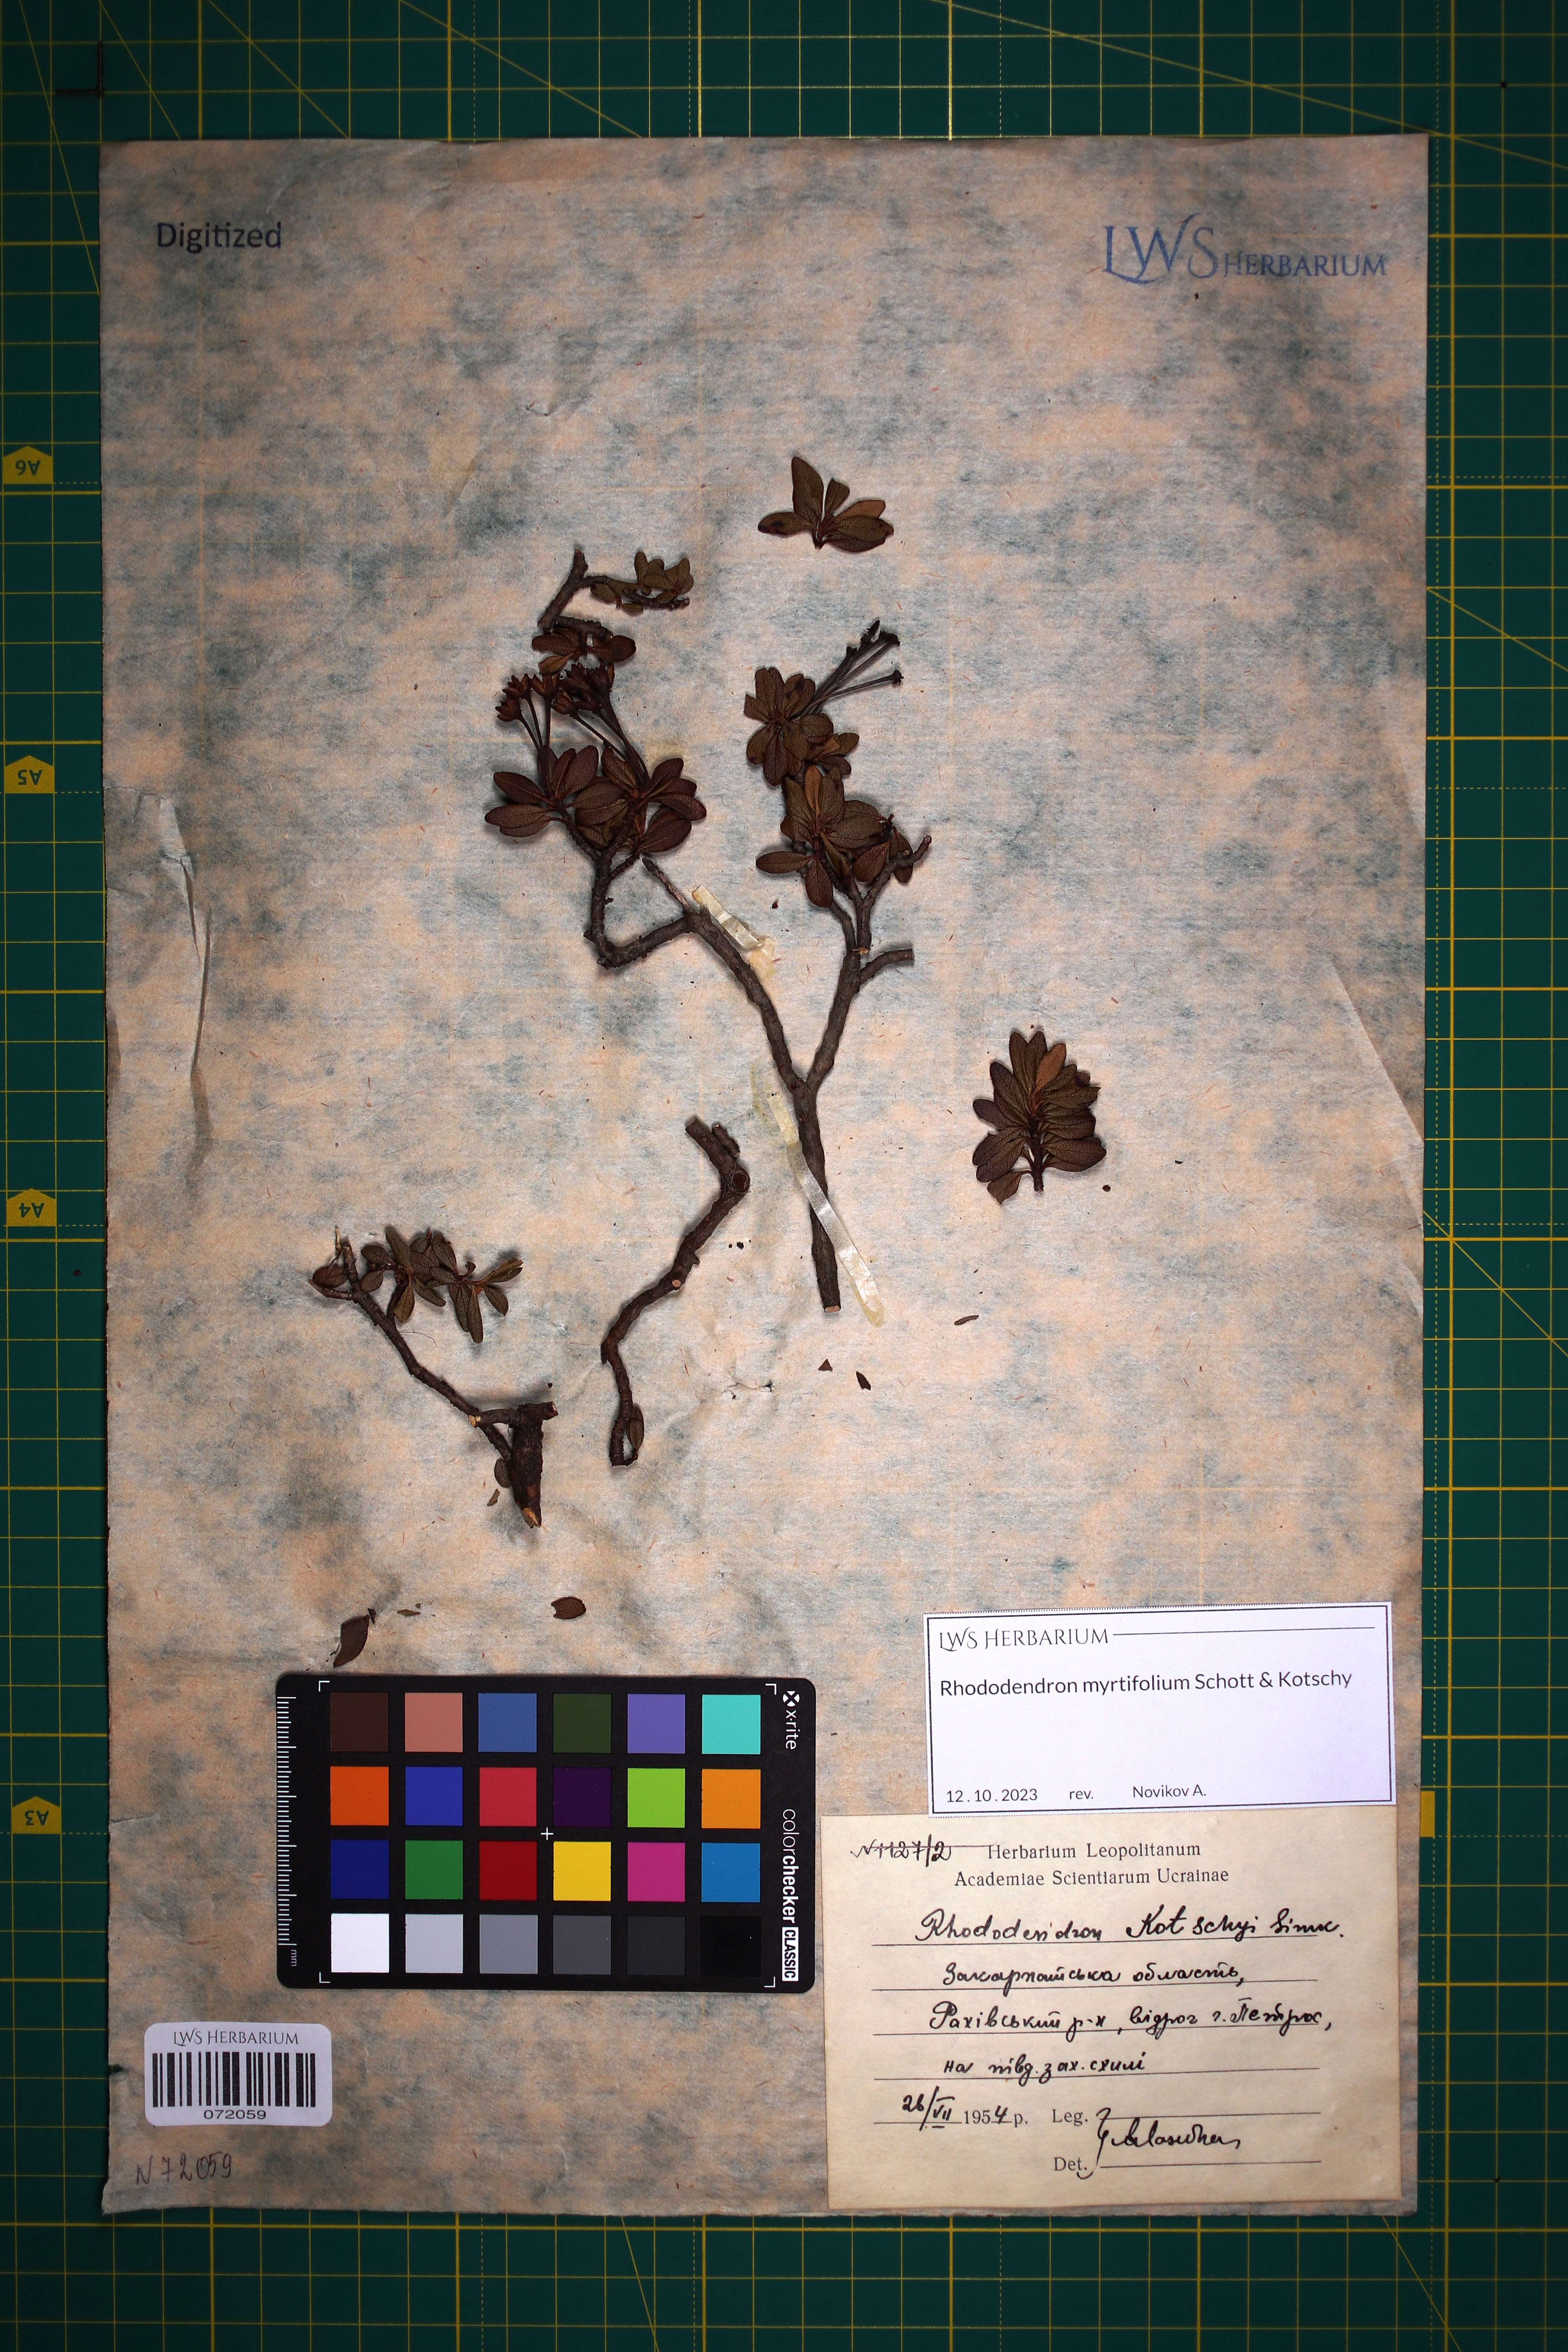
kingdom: Plantae
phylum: Tracheophyta
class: Magnoliopsida
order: Ericales
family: Ericaceae
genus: Rhododendron
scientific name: Rhododendron kotschyi
